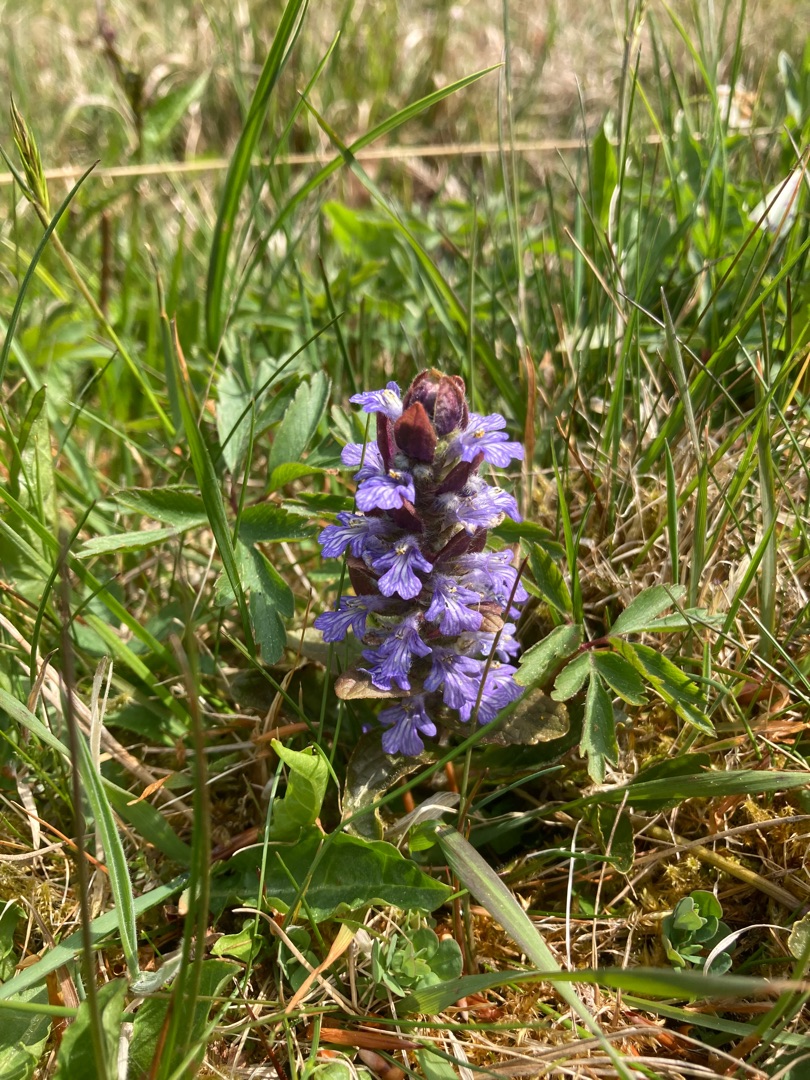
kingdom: Plantae
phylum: Tracheophyta
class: Magnoliopsida
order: Lamiales
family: Lamiaceae
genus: Ajuga
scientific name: Ajuga reptans
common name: Krybende læbeløs
